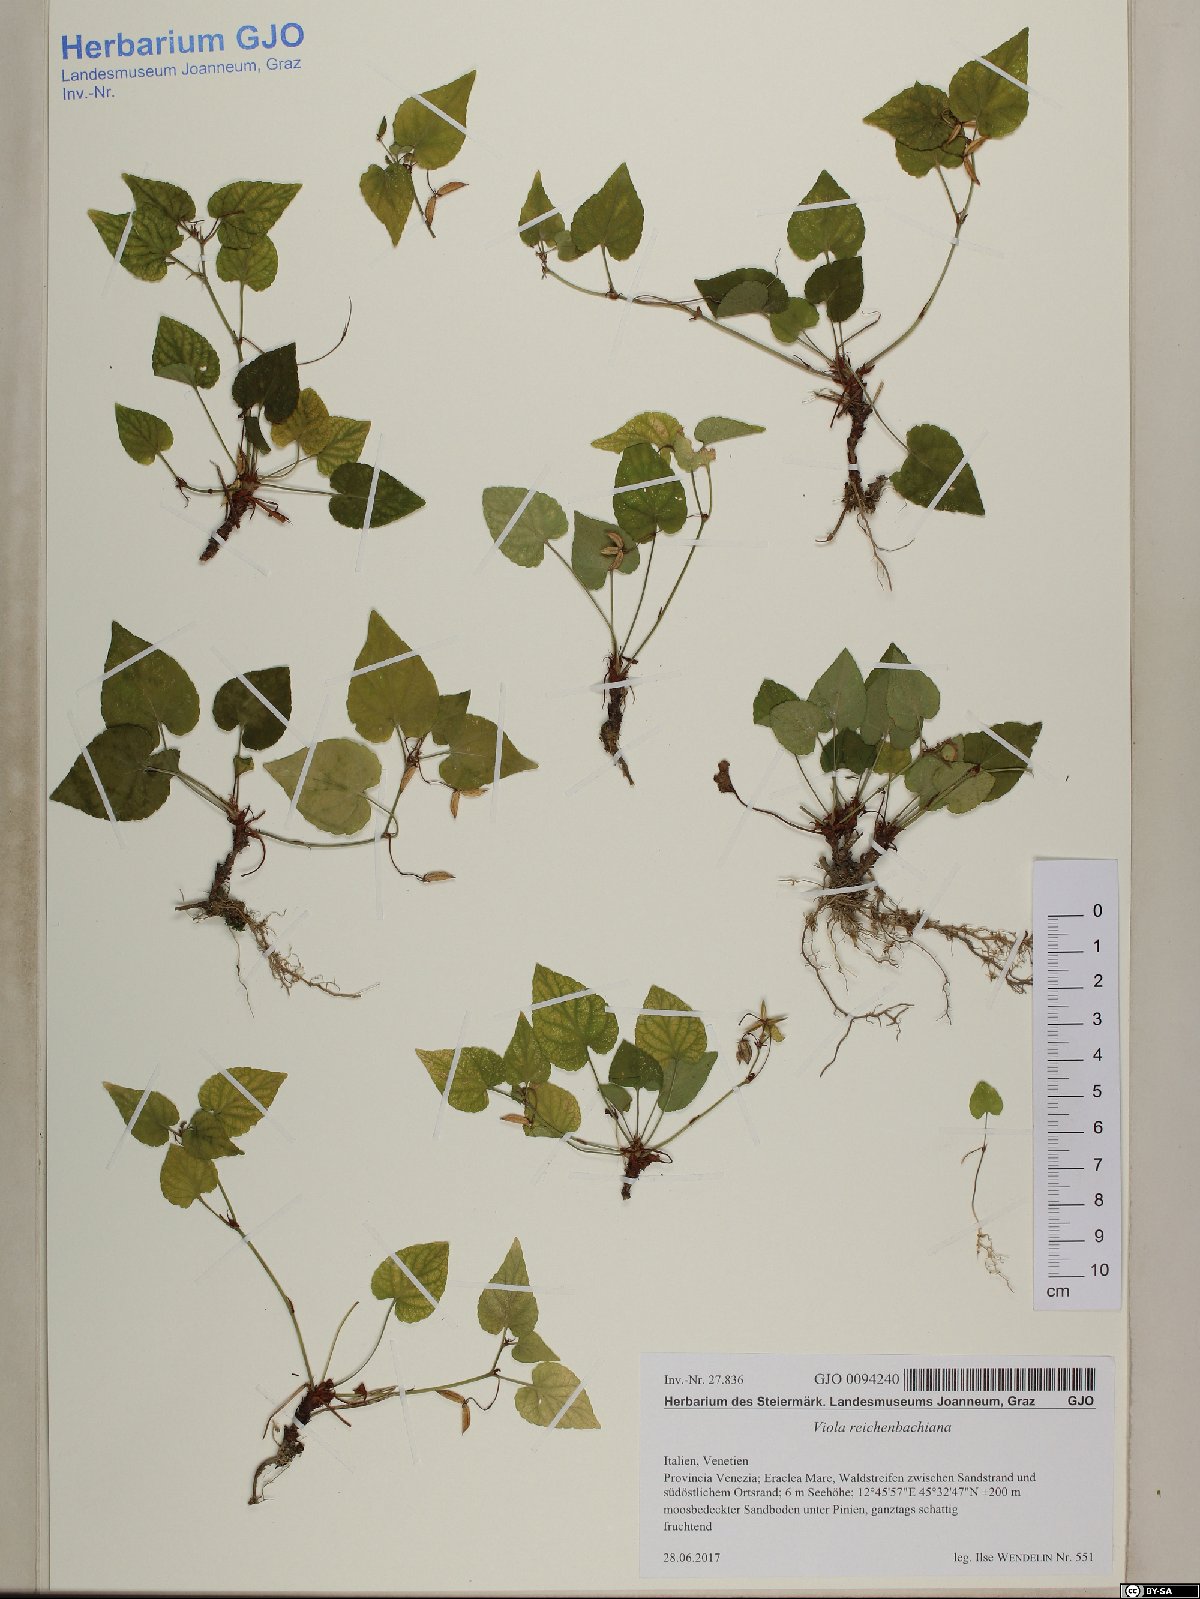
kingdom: Plantae
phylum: Tracheophyta
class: Magnoliopsida
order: Malpighiales
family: Violaceae
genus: Viola
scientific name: Viola reichenbachiana
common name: Early dog-violet
